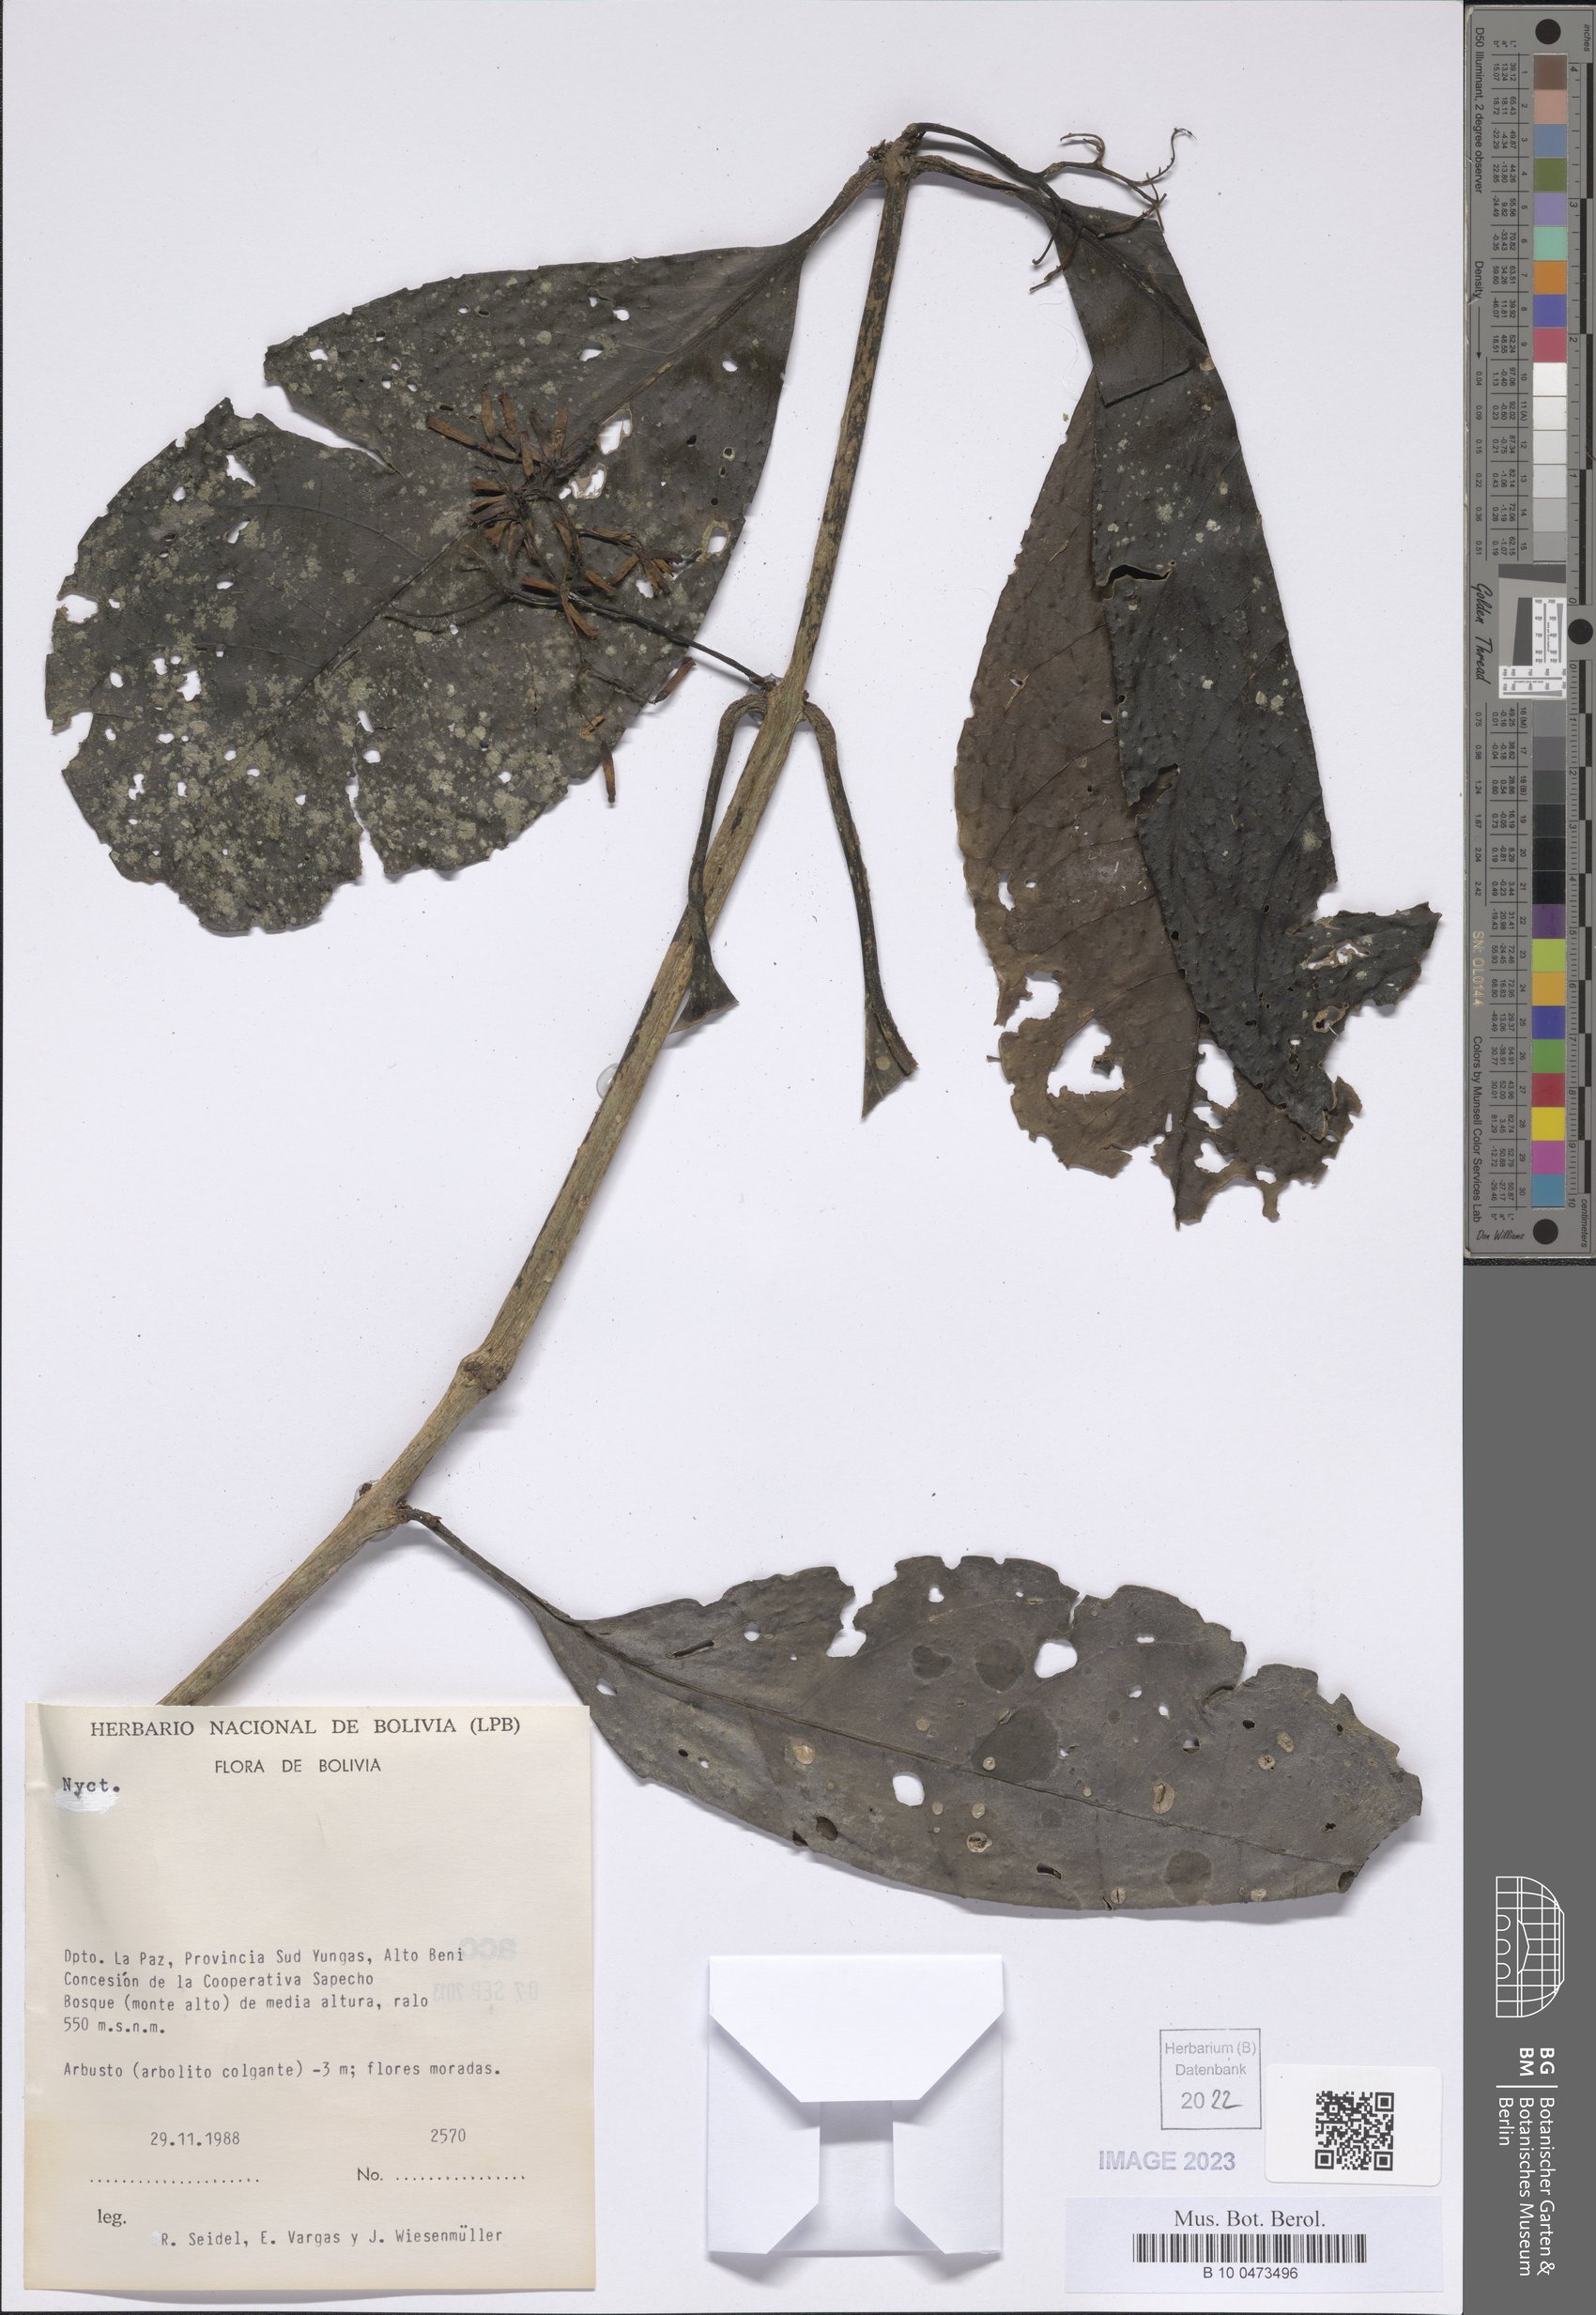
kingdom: Plantae
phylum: Tracheophyta
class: Magnoliopsida
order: Caryophyllales
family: Nyctaginaceae
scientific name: Nyctaginaceae
